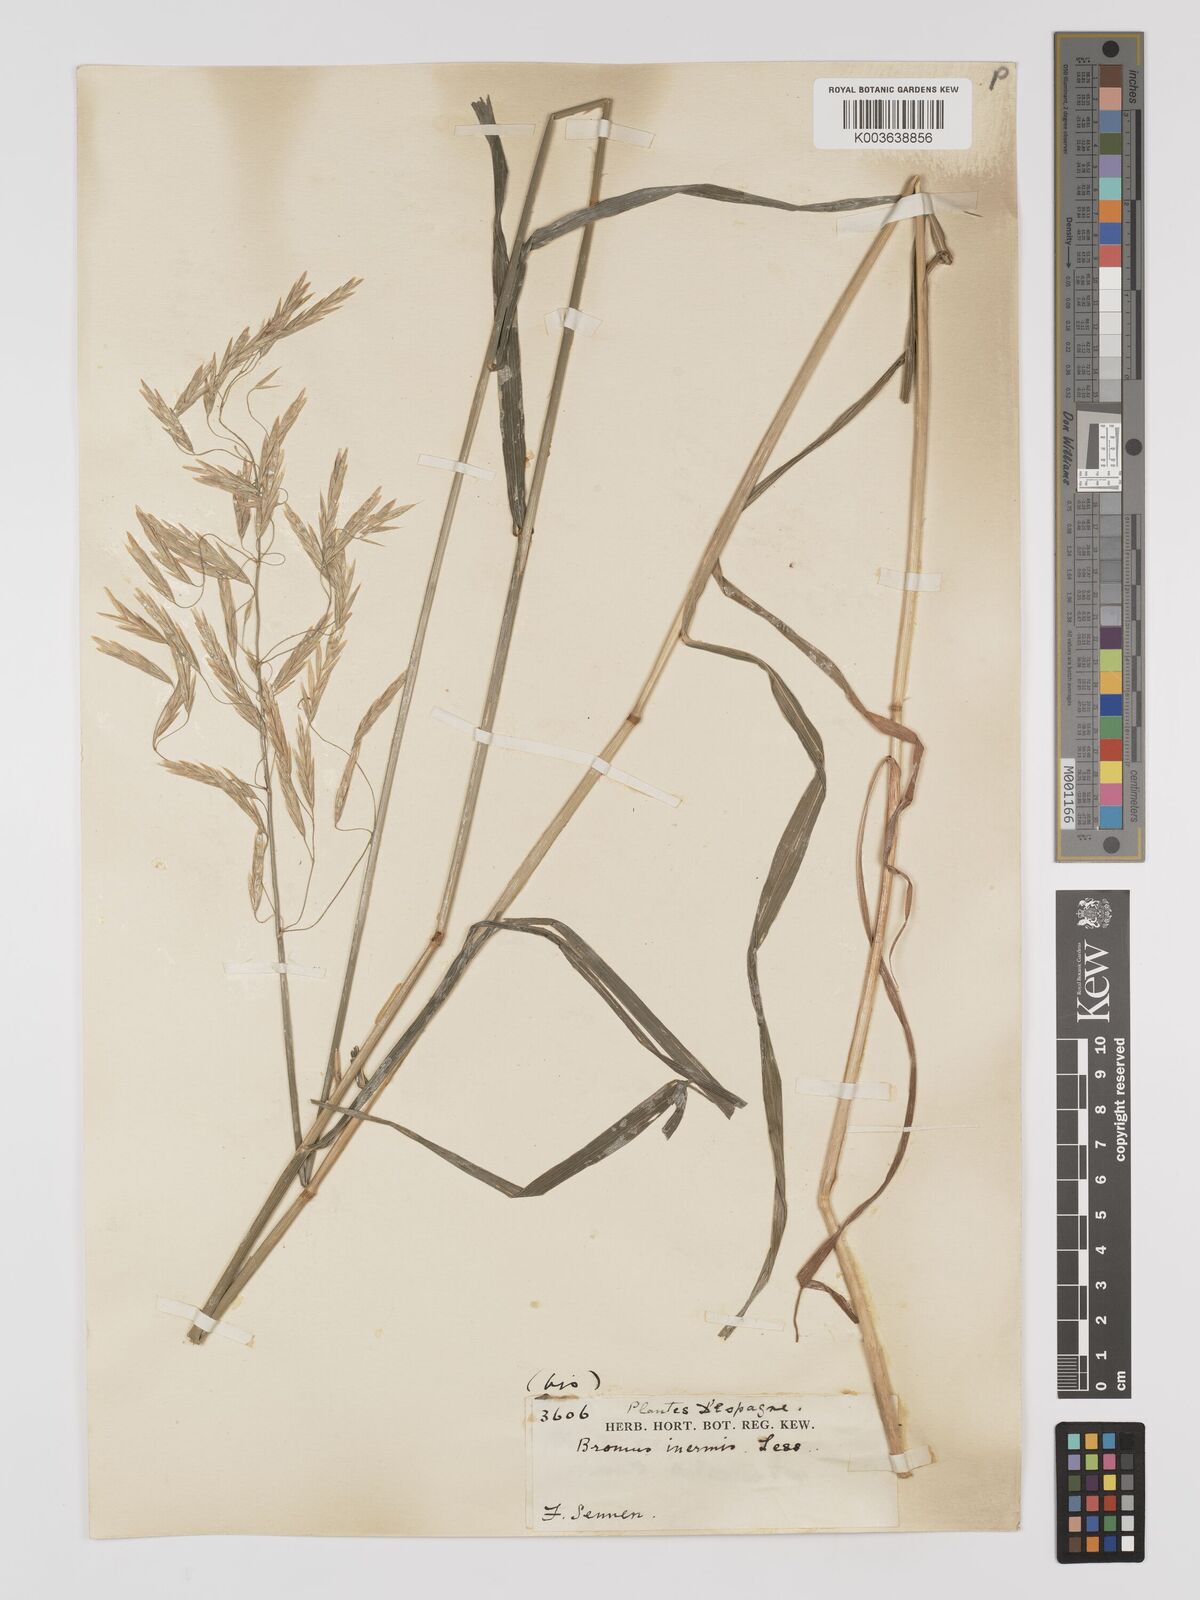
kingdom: Plantae
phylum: Tracheophyta
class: Liliopsida
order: Poales
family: Poaceae
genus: Bromus
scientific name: Bromus inermis
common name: Smooth brome
